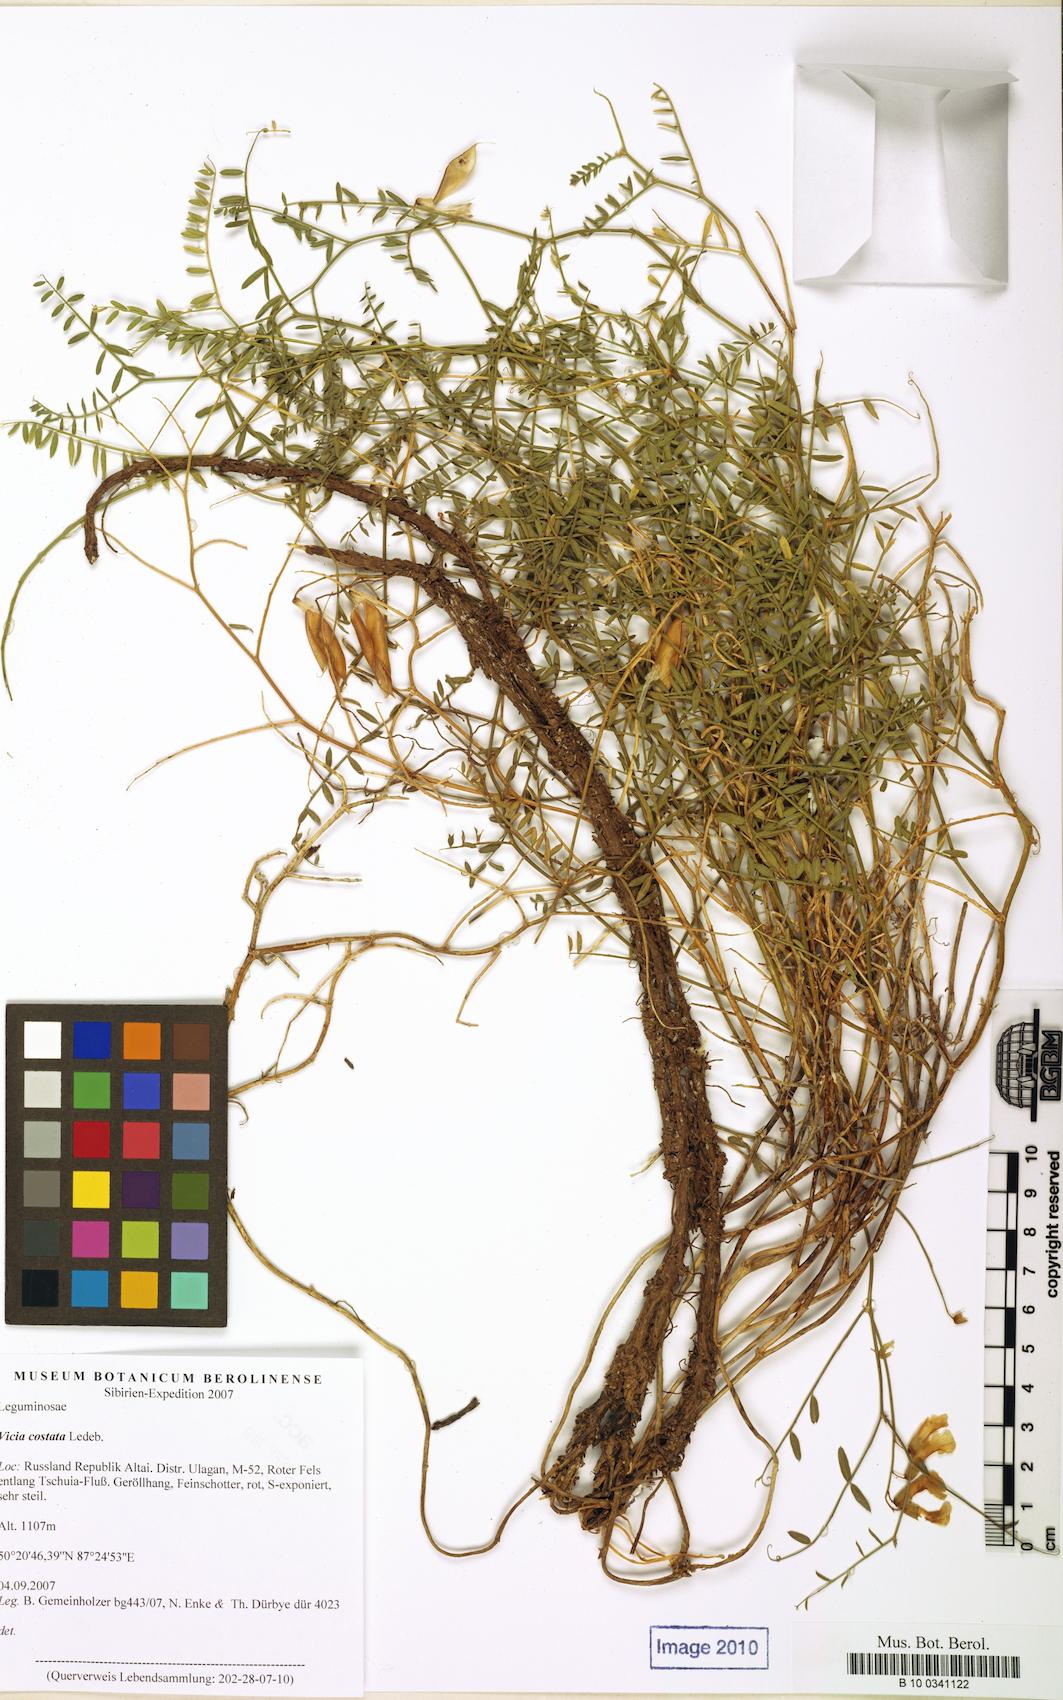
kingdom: Plantae
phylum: Tracheophyta
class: Magnoliopsida
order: Fabales
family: Fabaceae
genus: Vicia
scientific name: Vicia costata
